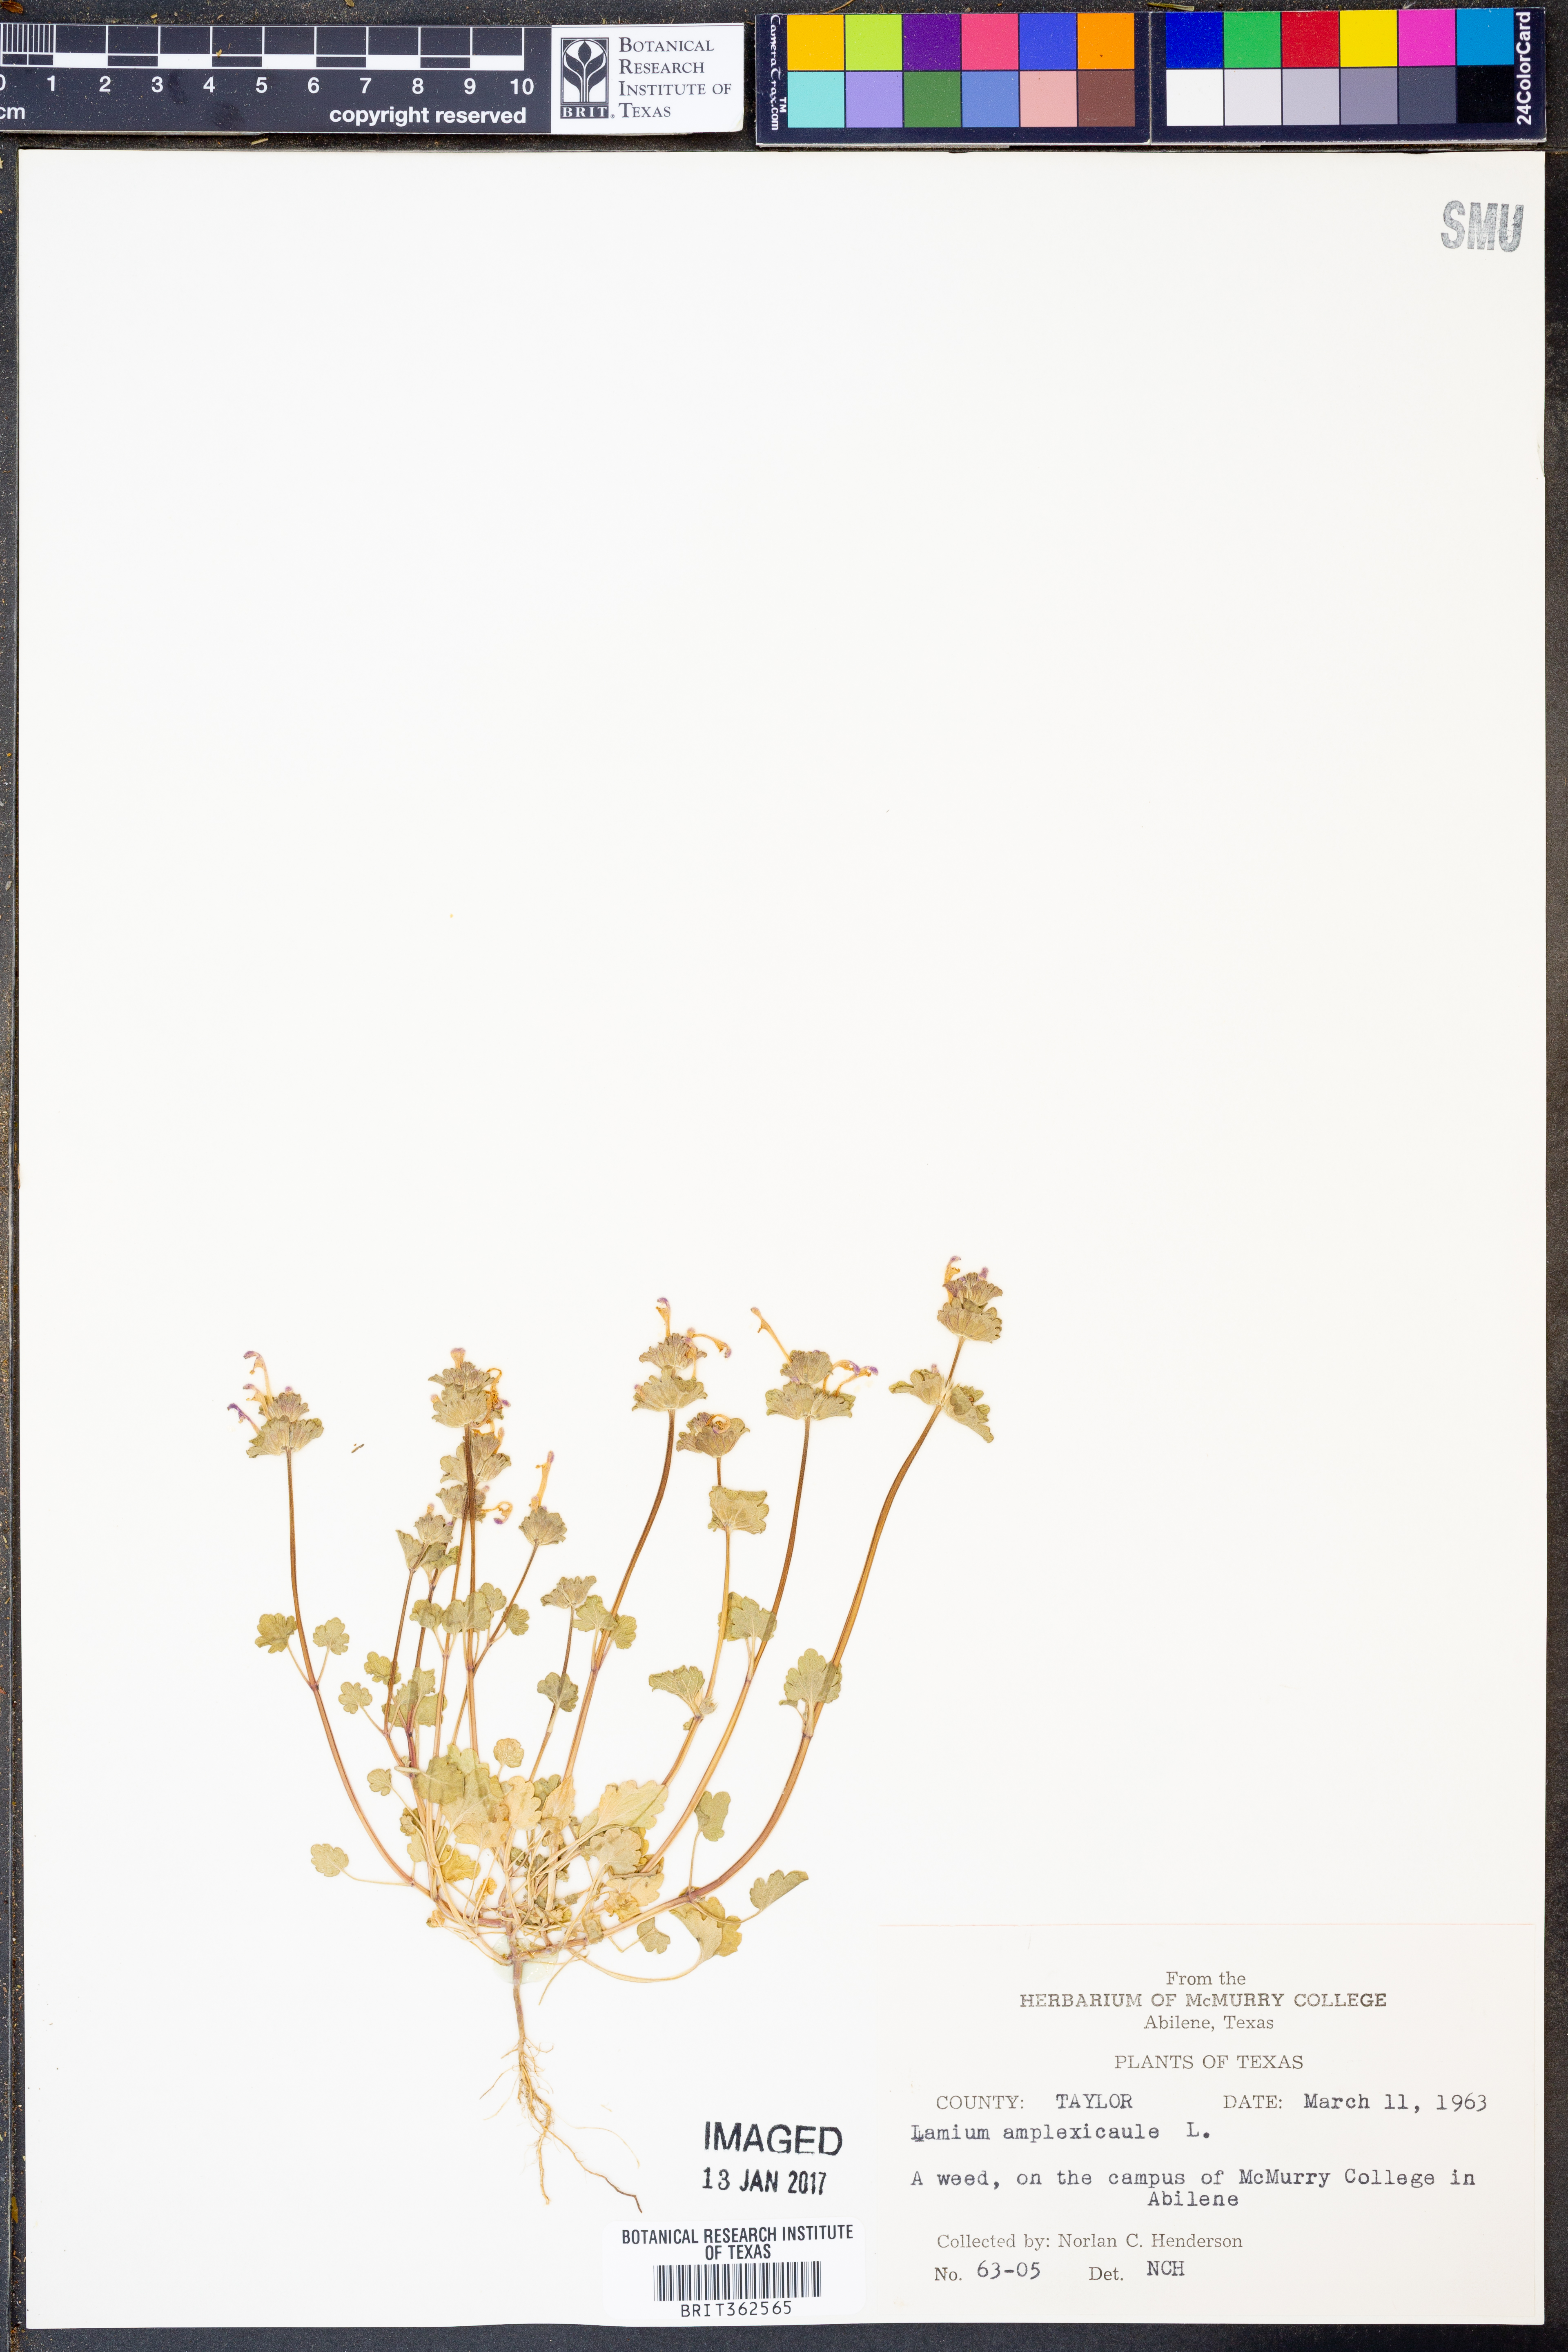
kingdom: Plantae
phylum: Tracheophyta
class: Magnoliopsida
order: Lamiales
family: Lamiaceae
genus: Lamium
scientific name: Lamium amplexicaule
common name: Henbit dead-nettle
